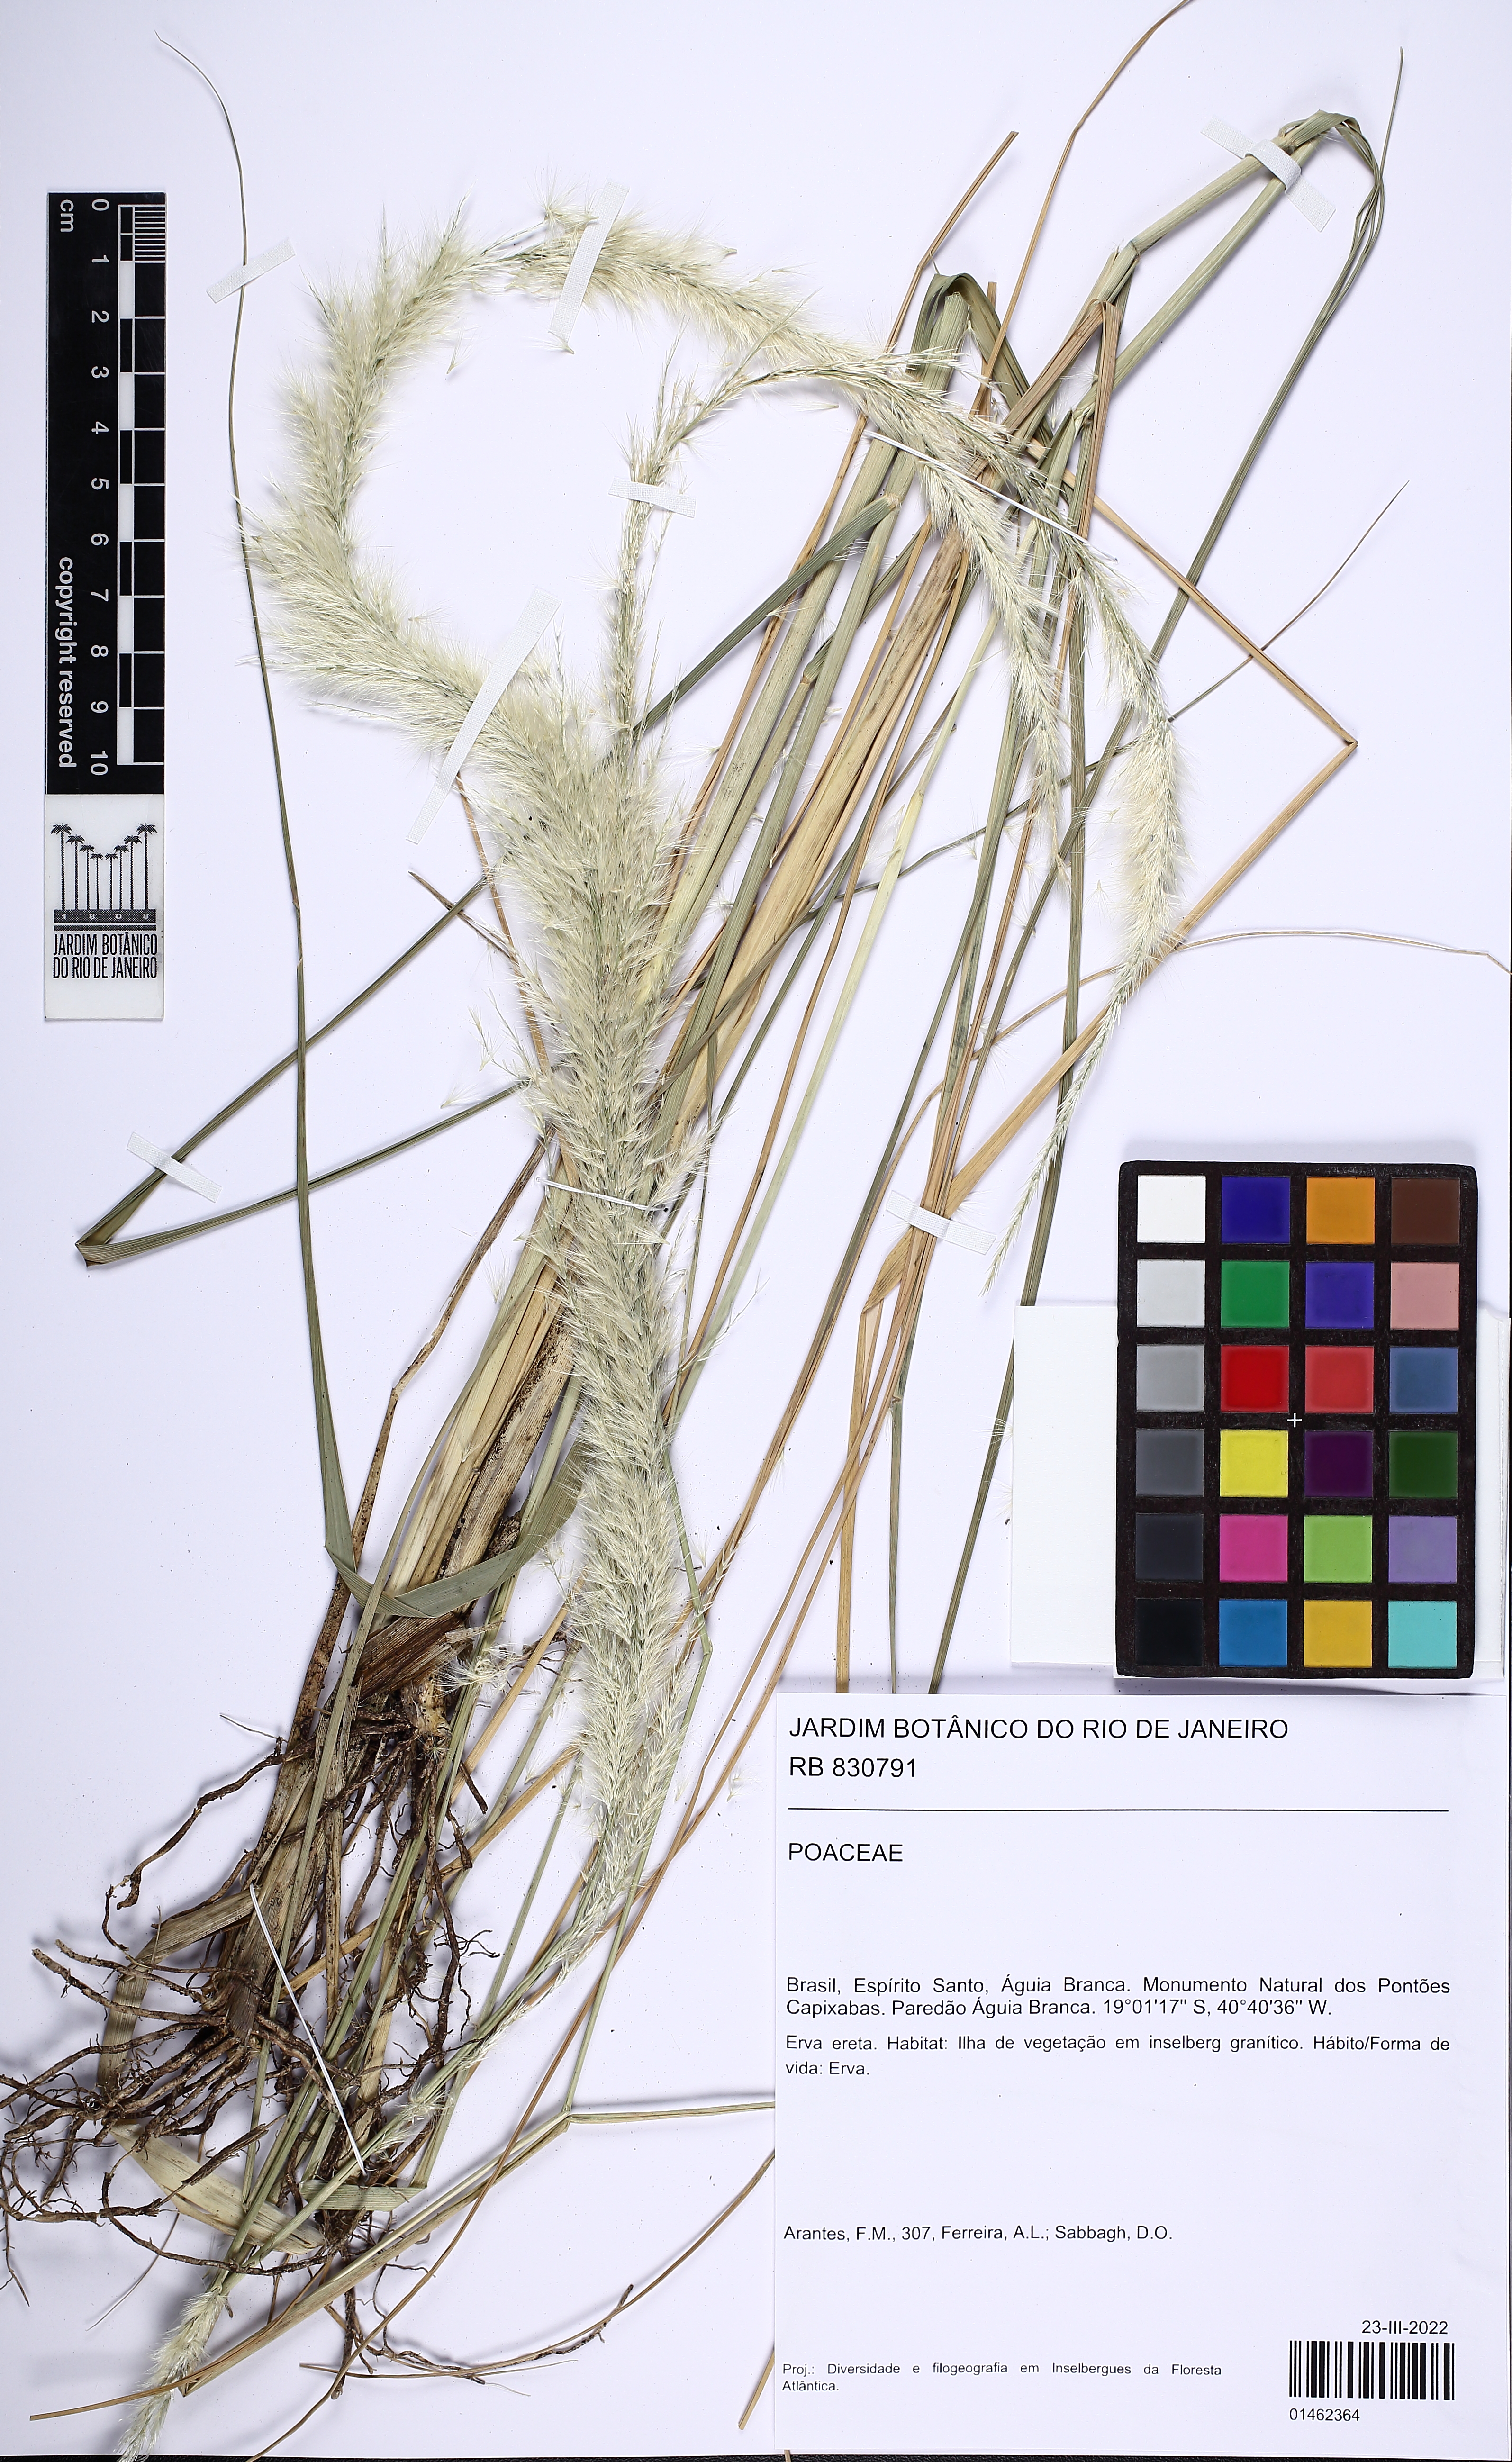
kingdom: Plantae
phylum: Tracheophyta
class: Liliopsida
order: Poales
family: Poaceae
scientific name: Poaceae
